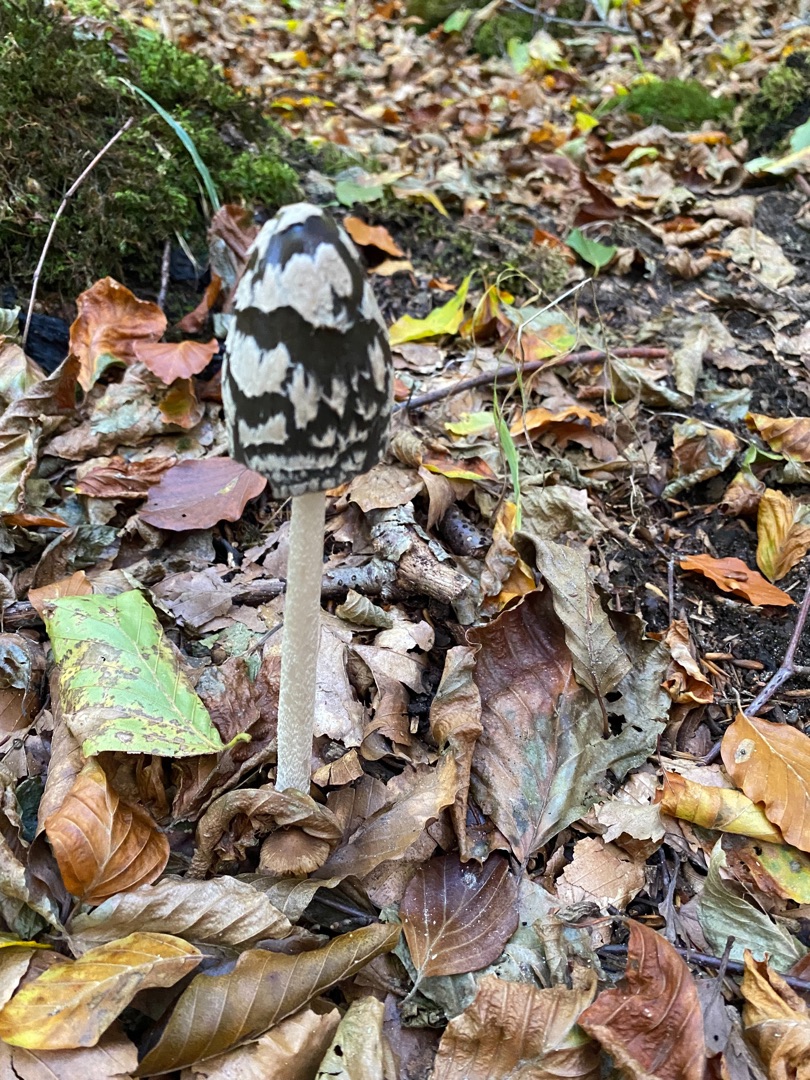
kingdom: Fungi
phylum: Basidiomycota
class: Agaricomycetes
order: Agaricales
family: Psathyrellaceae
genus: Coprinopsis
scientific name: Coprinopsis picacea
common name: Skade-blækhat
